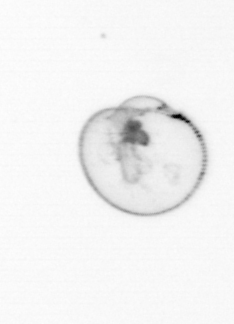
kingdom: Chromista
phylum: Myzozoa
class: Dinophyceae
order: Noctilucales
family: Noctilucaceae
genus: Noctiluca
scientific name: Noctiluca scintillans
